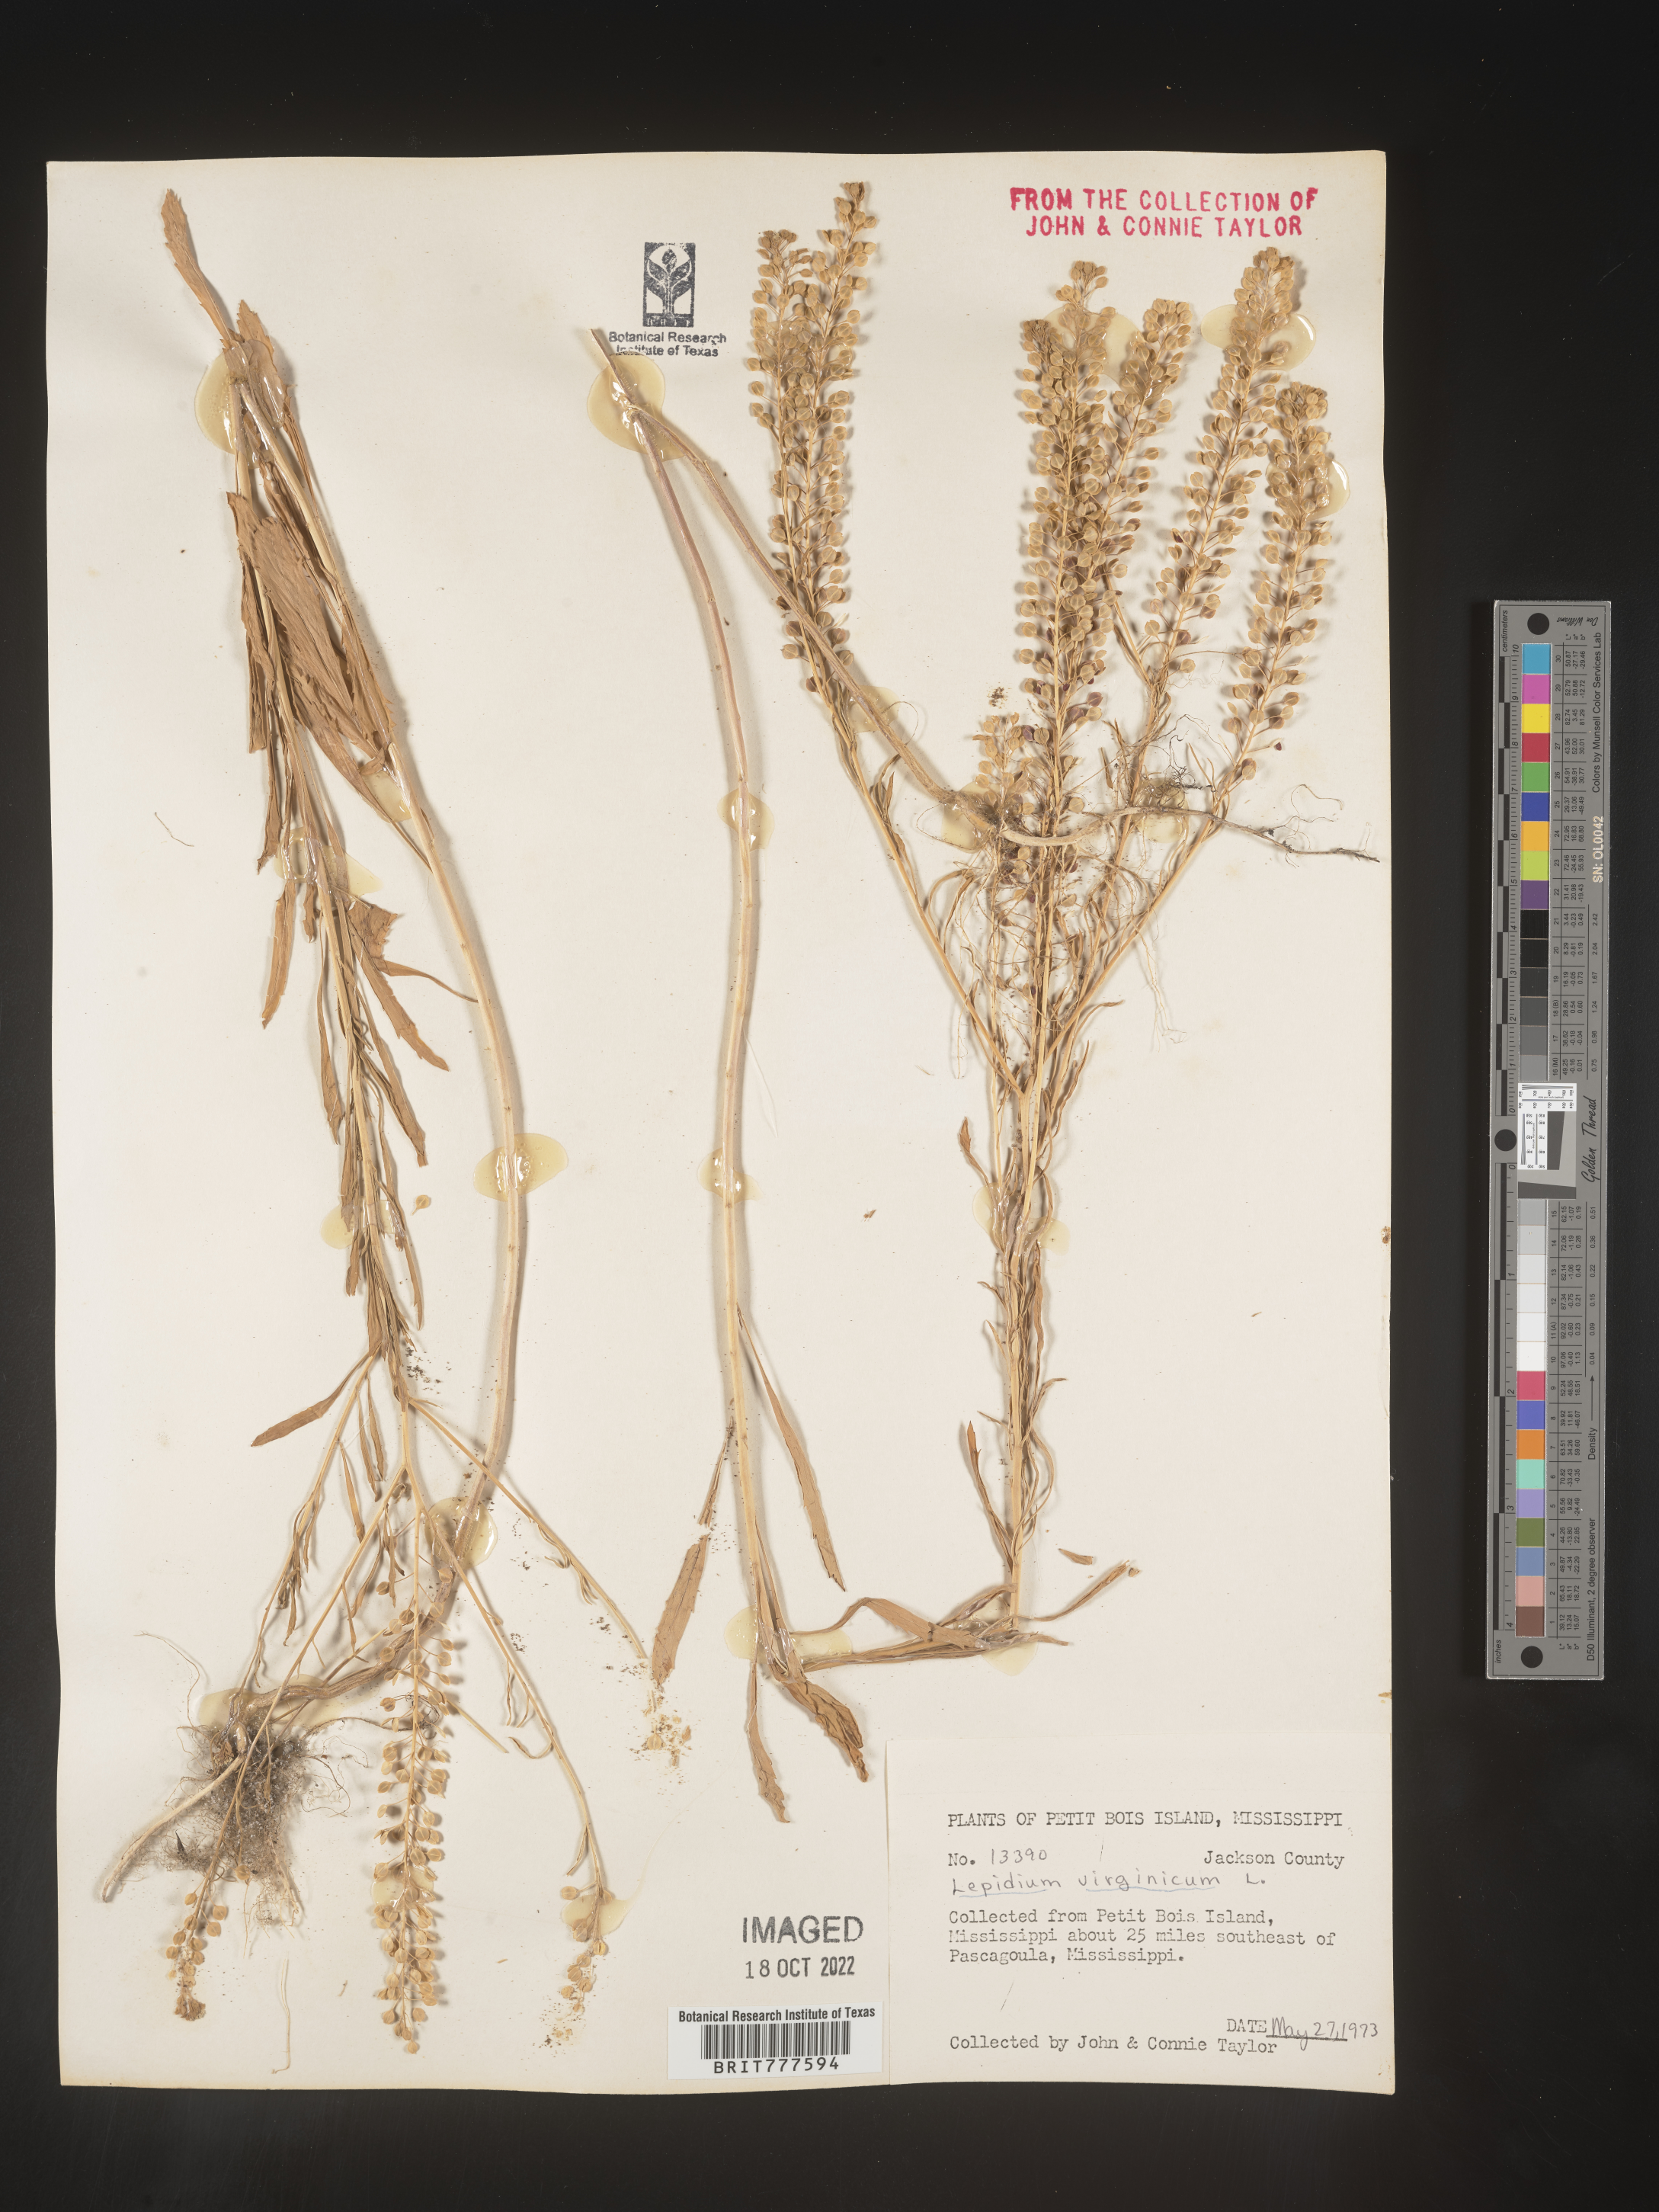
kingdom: Plantae
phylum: Tracheophyta
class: Magnoliopsida
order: Brassicales
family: Brassicaceae
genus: Lepidium
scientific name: Lepidium virginicum
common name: Least pepperwort
